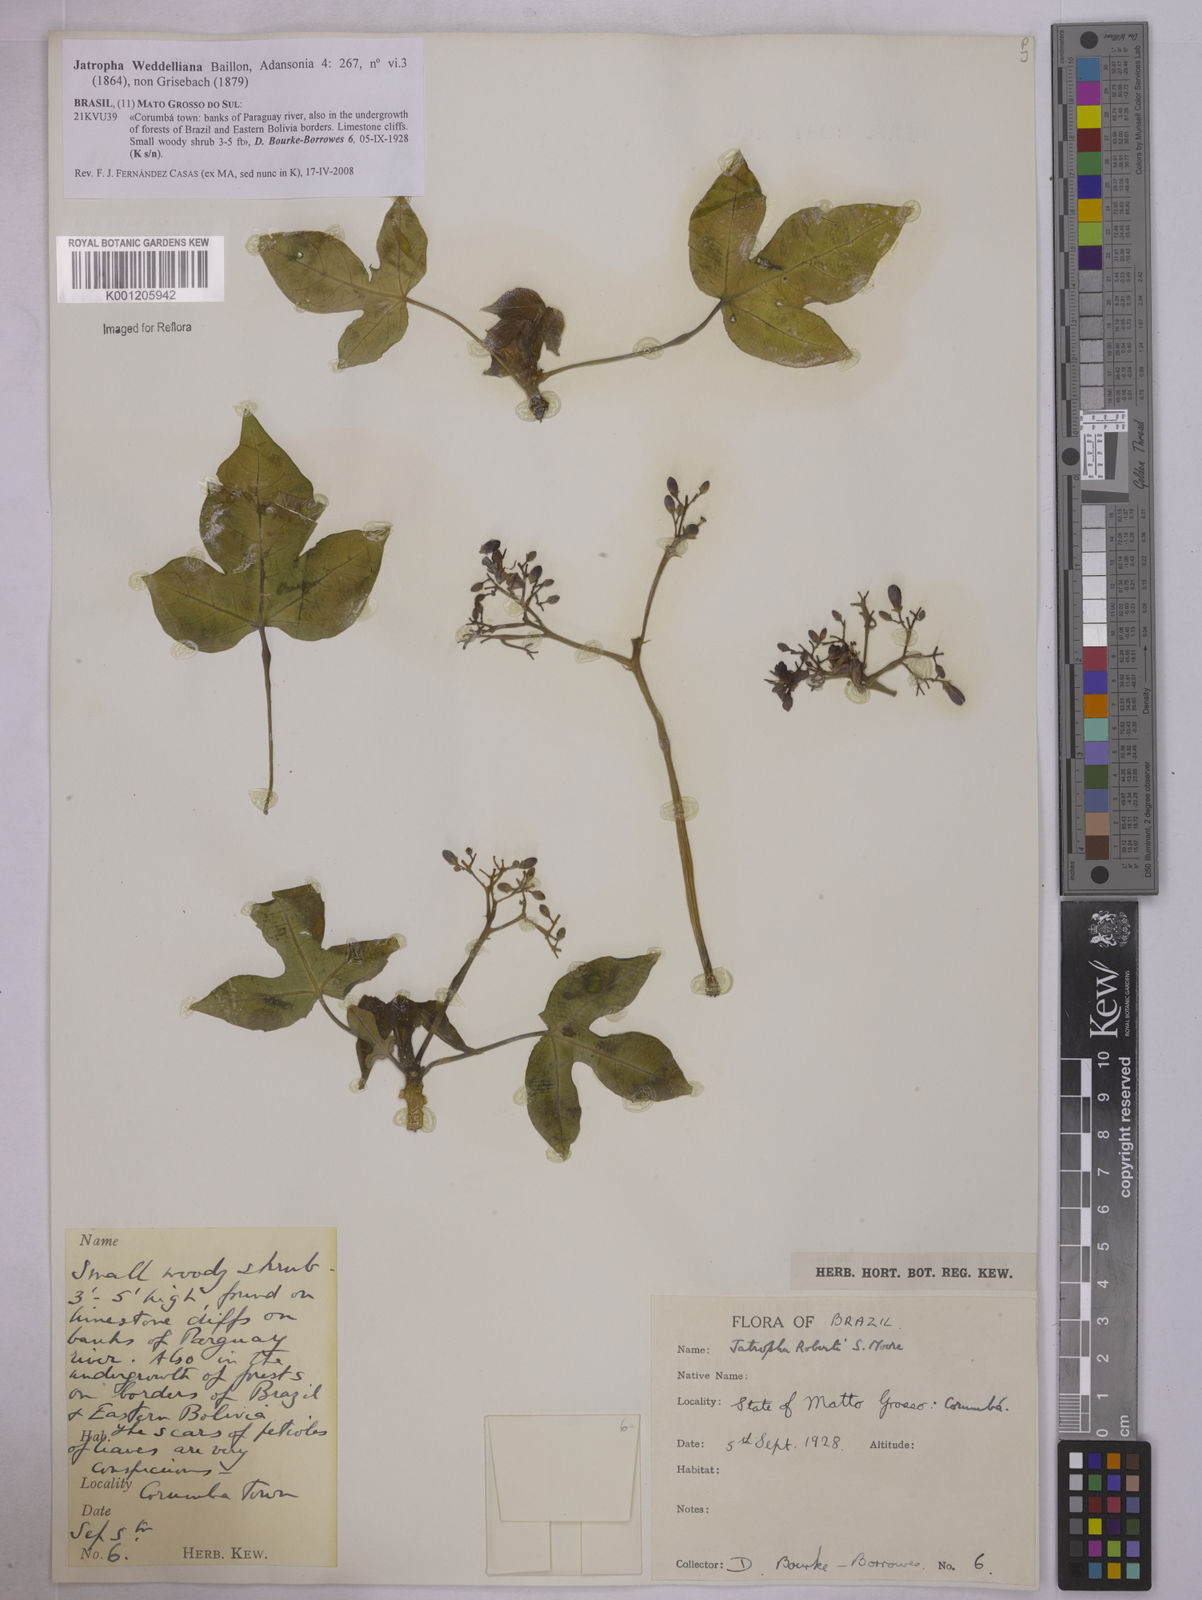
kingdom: Plantae
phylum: Tracheophyta
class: Magnoliopsida
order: Malpighiales
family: Euphorbiaceae
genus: Jatropha
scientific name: Jatropha weddeliana
